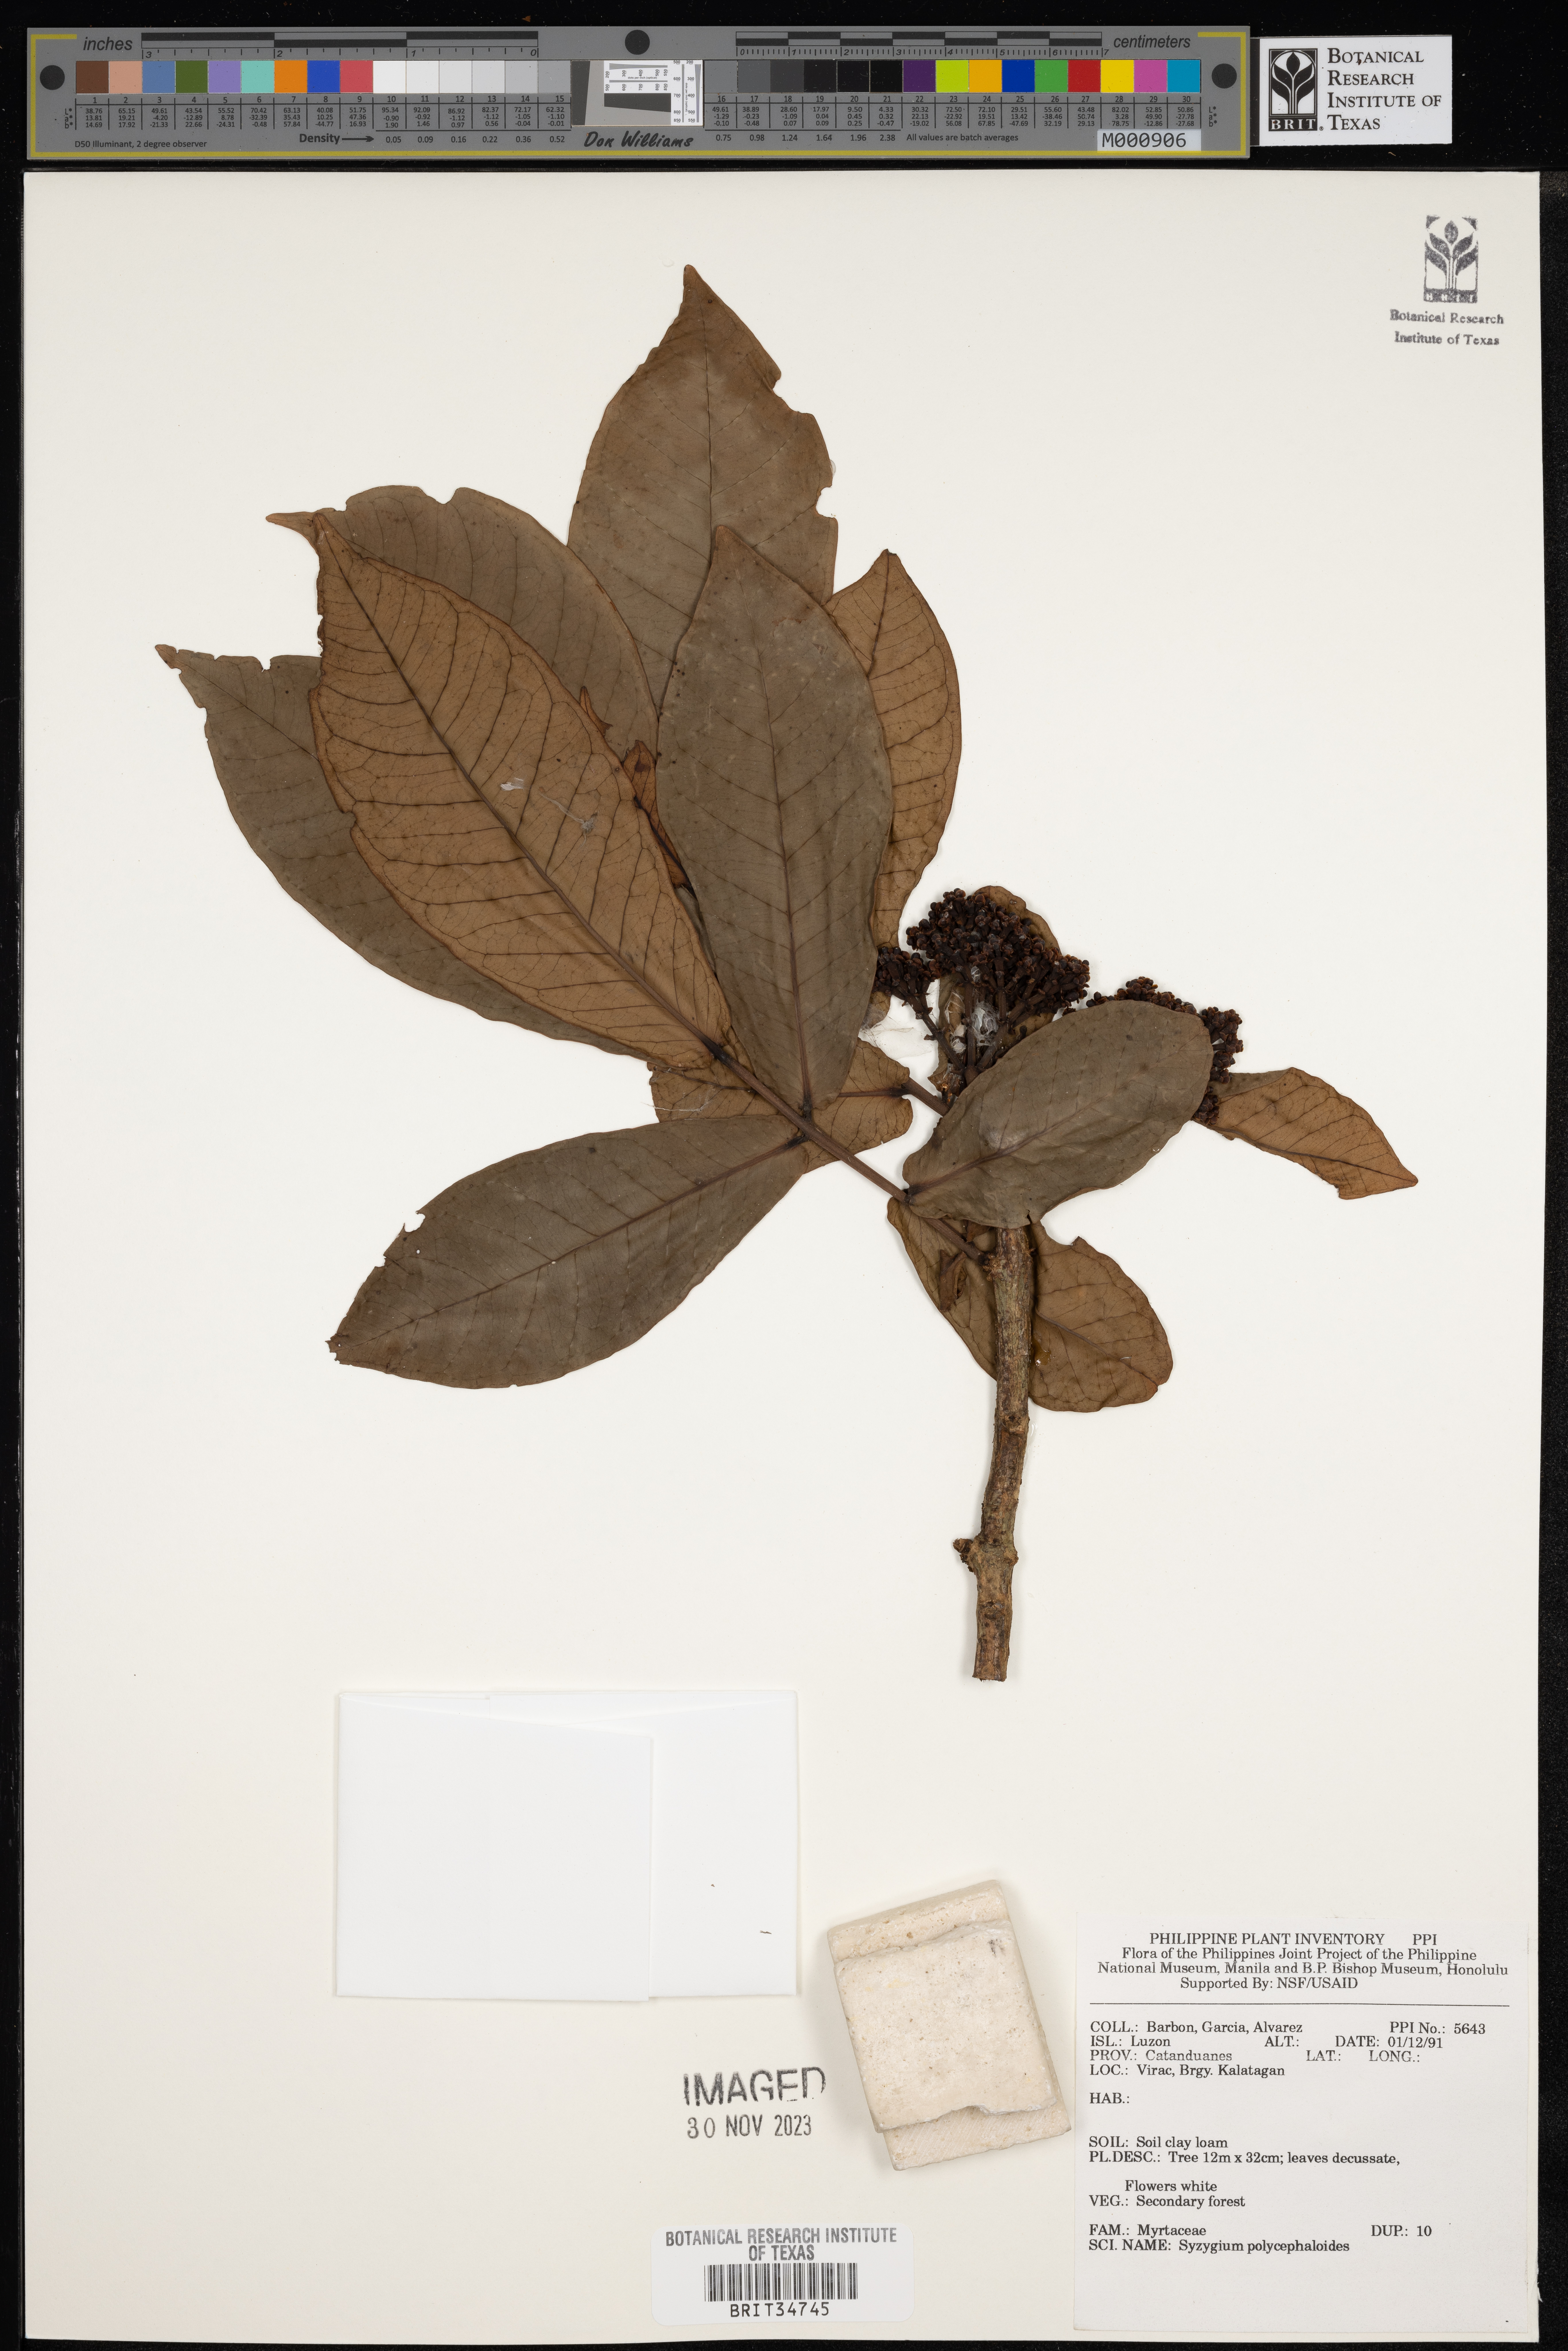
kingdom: Plantae
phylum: Tracheophyta
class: Magnoliopsida
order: Myrtales
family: Myrtaceae
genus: Syzygium
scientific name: Syzygium polycephaloides
